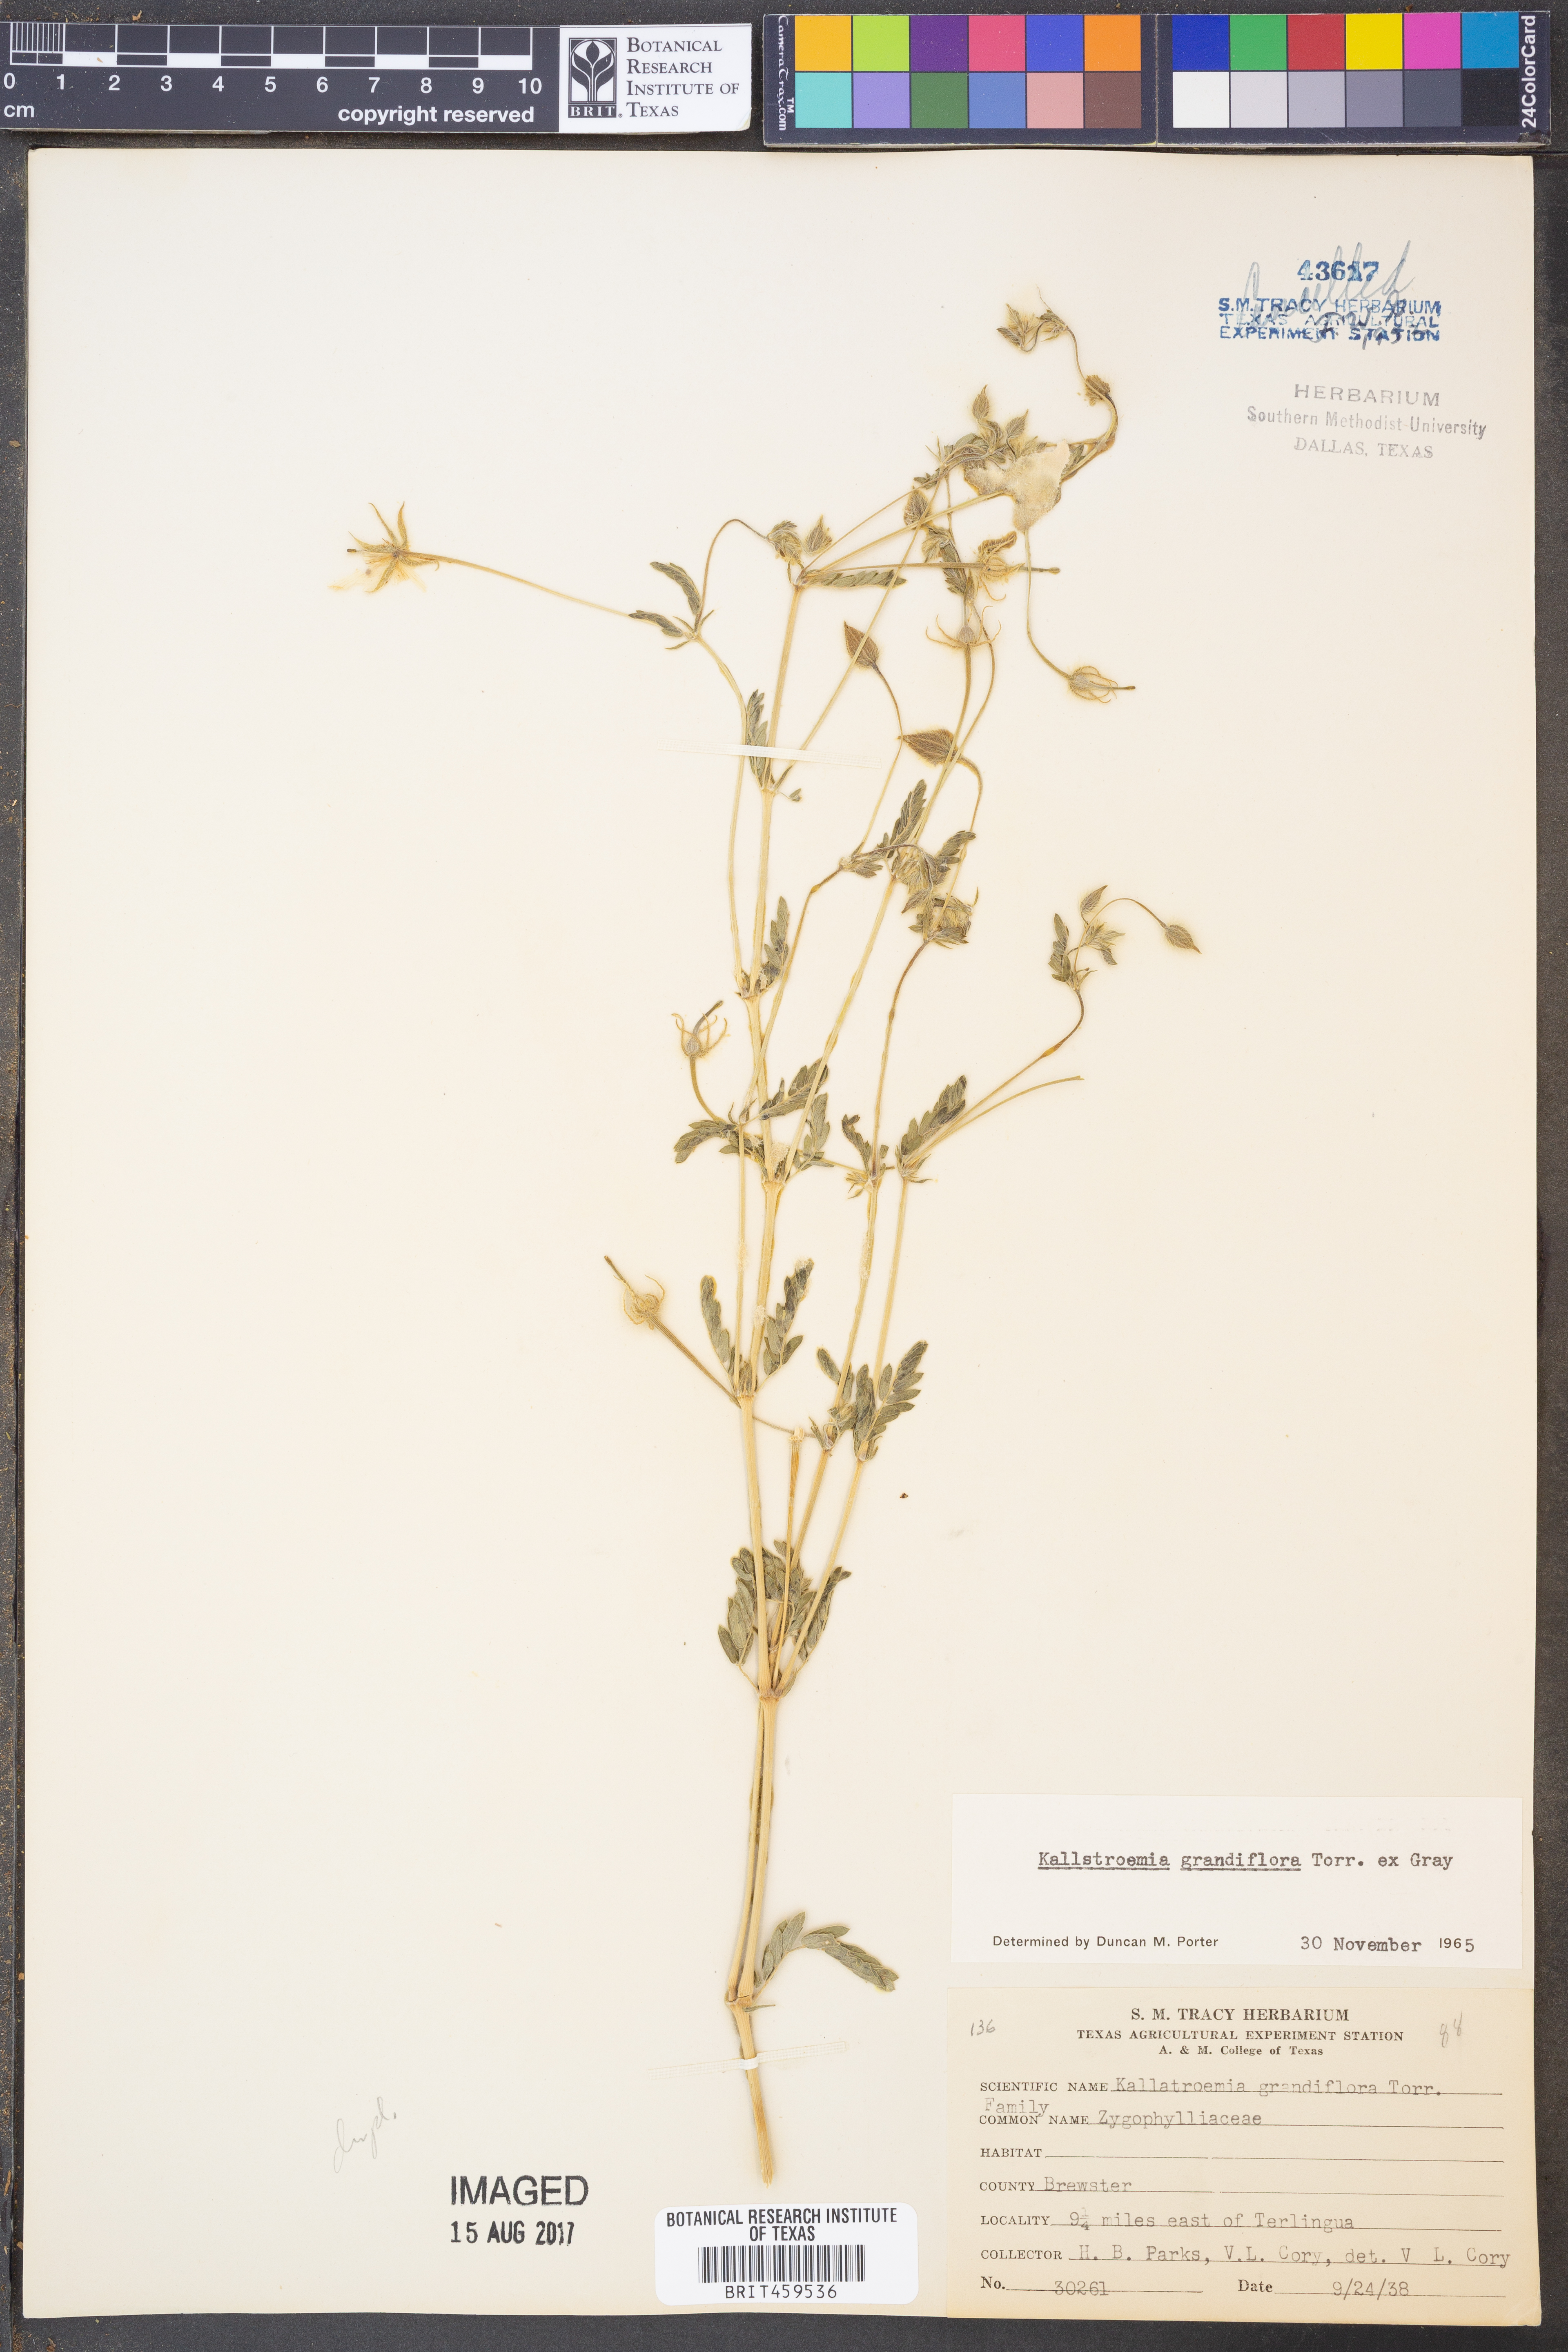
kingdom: Plantae
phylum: Tracheophyta
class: Magnoliopsida
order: Zygophyllales
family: Zygophyllaceae
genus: Kallstroemia
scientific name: Kallstroemia grandiflora
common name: Arizona-poppy
